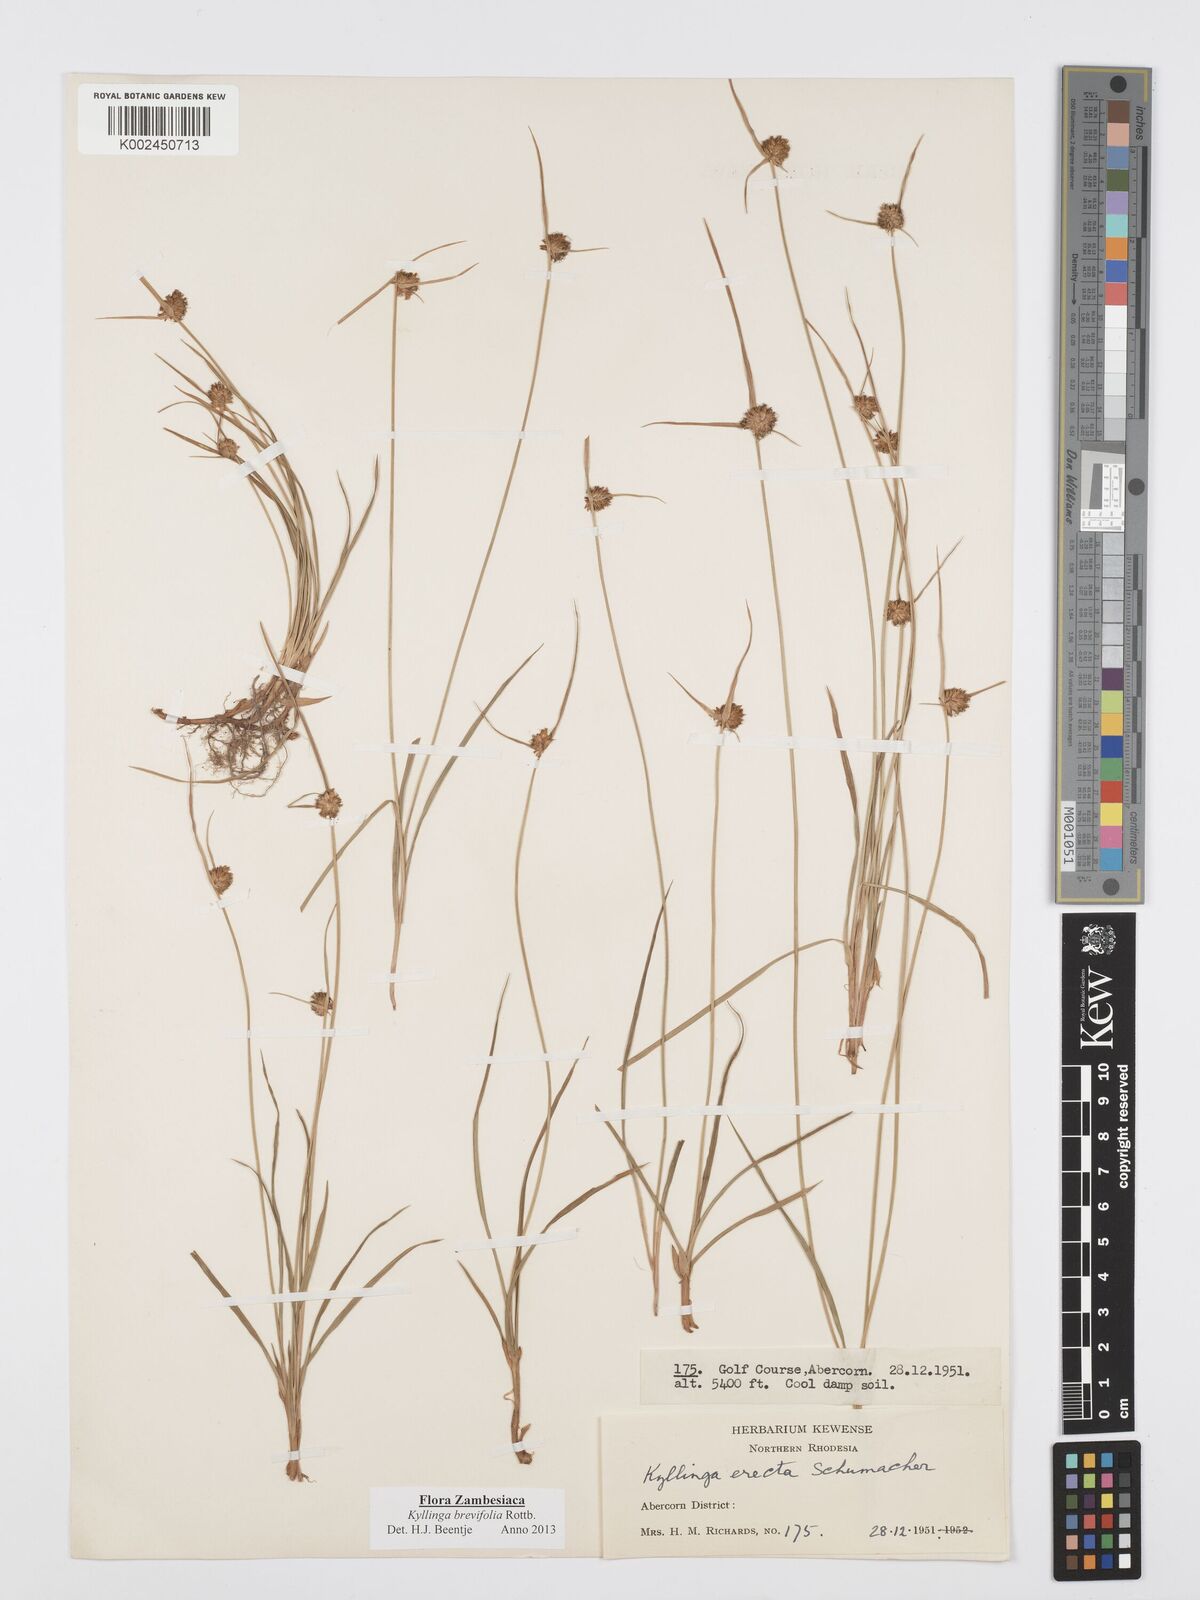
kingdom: Plantae
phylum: Tracheophyta
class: Liliopsida
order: Poales
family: Cyperaceae
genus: Cyperus
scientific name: Cyperus brevifolius
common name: Globe kyllinga
